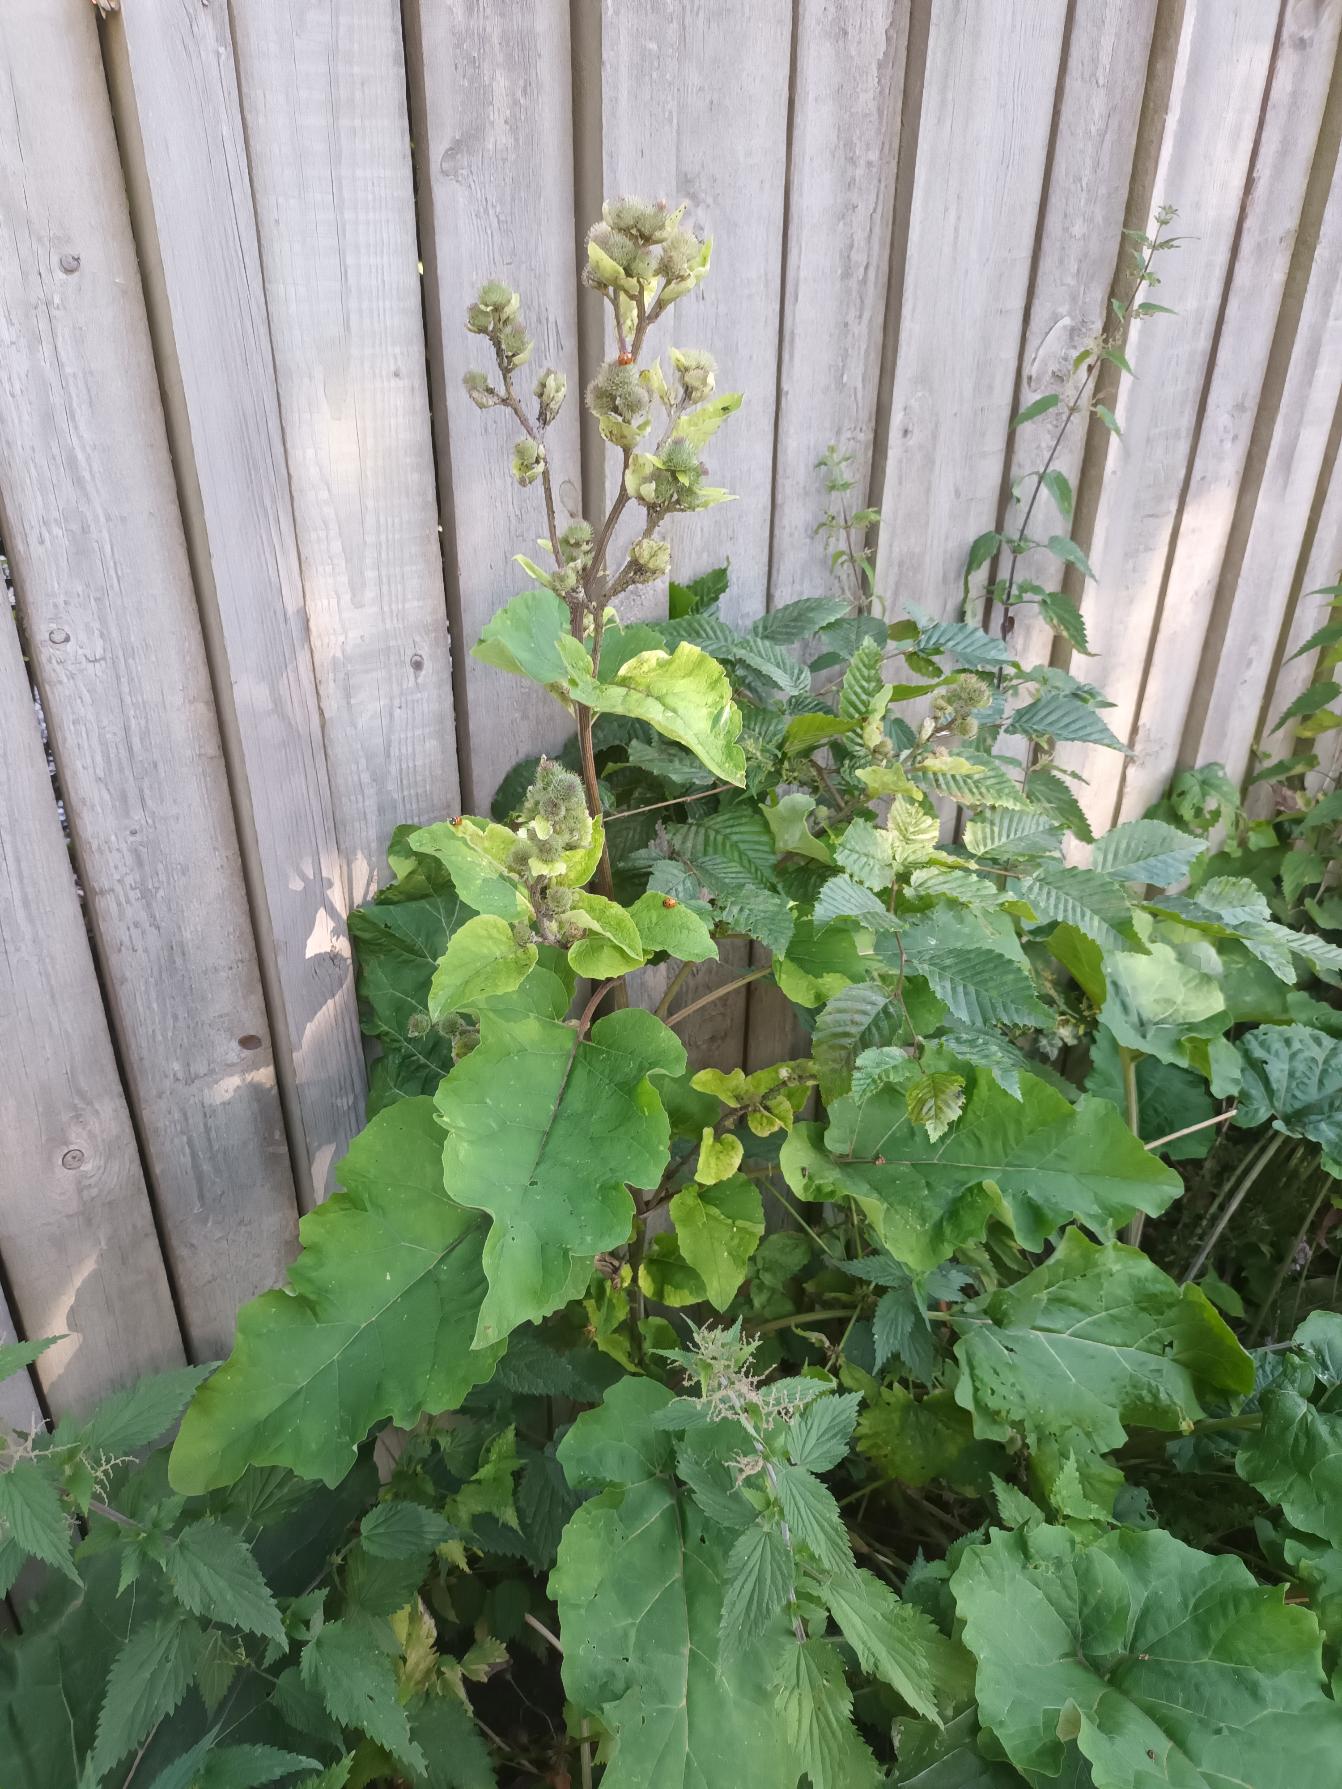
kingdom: Plantae
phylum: Tracheophyta
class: Magnoliopsida
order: Asterales
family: Asteraceae
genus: Arctium
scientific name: Arctium minus
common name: Liden burre
